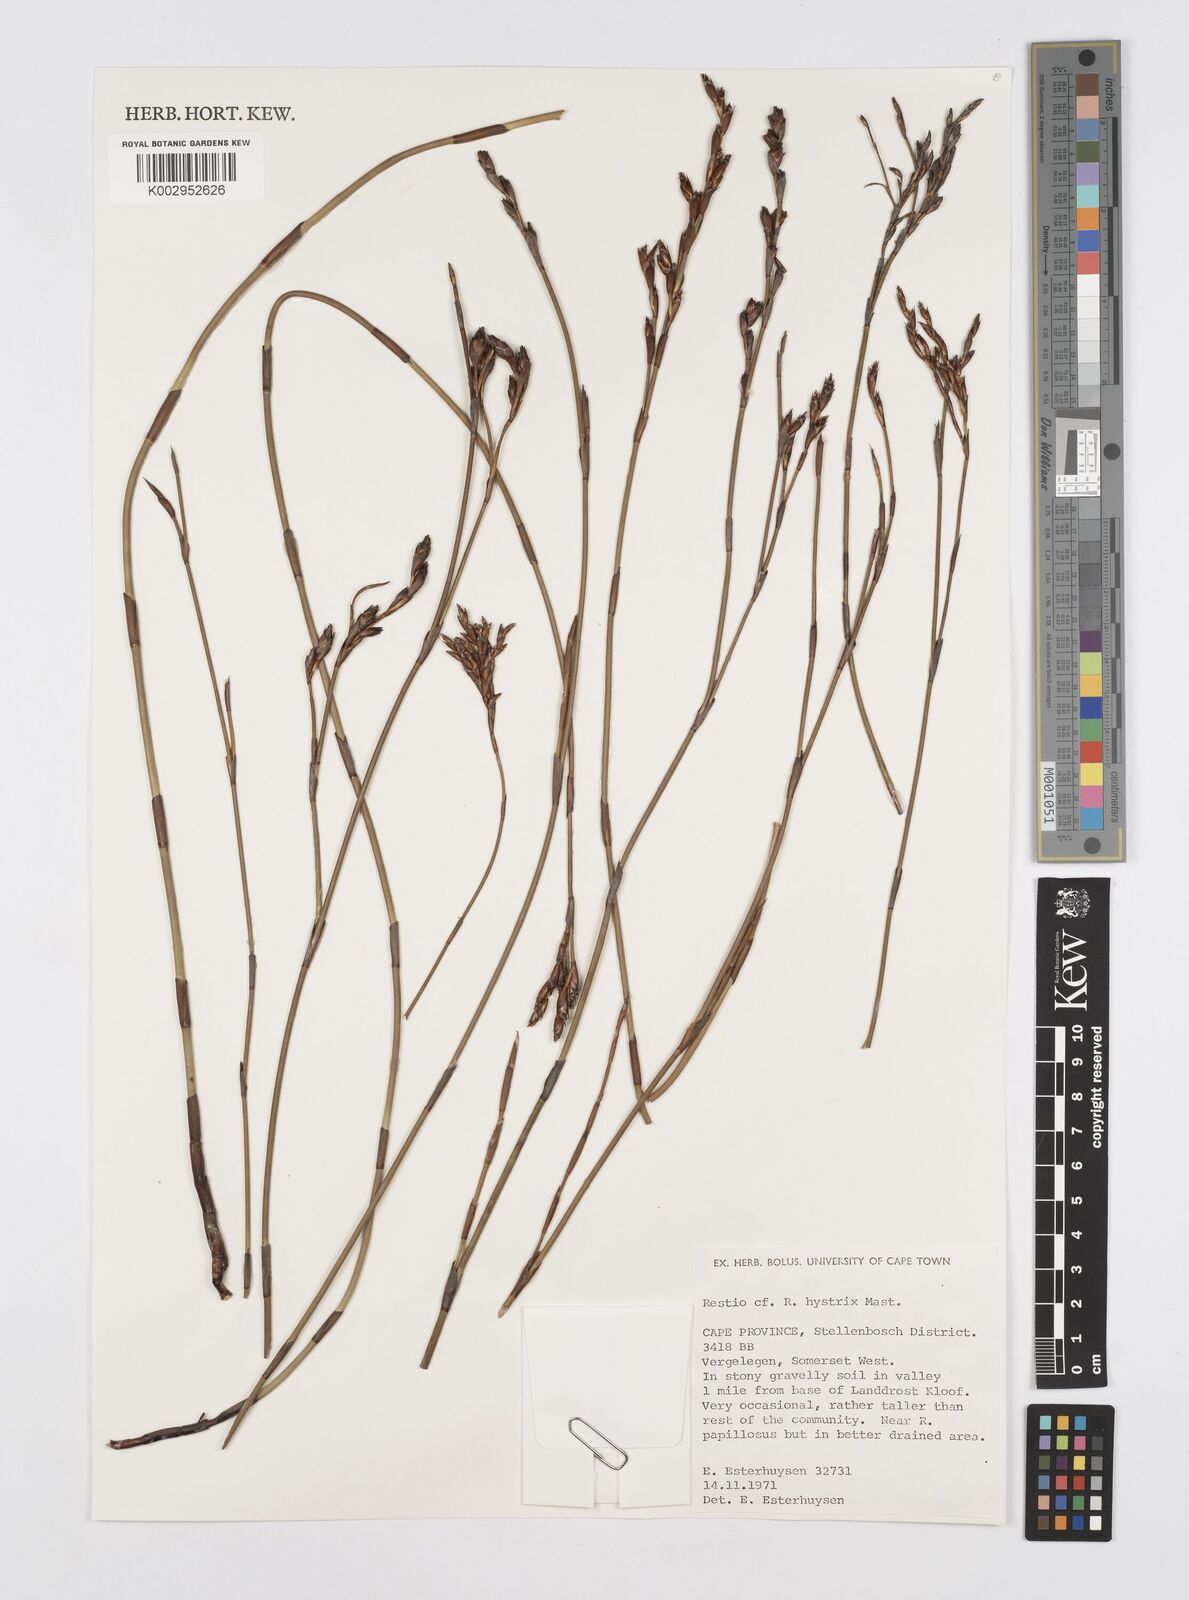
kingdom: Plantae
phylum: Tracheophyta
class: Liliopsida
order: Poales
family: Restionaceae
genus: Restio
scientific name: Restio hystrix
